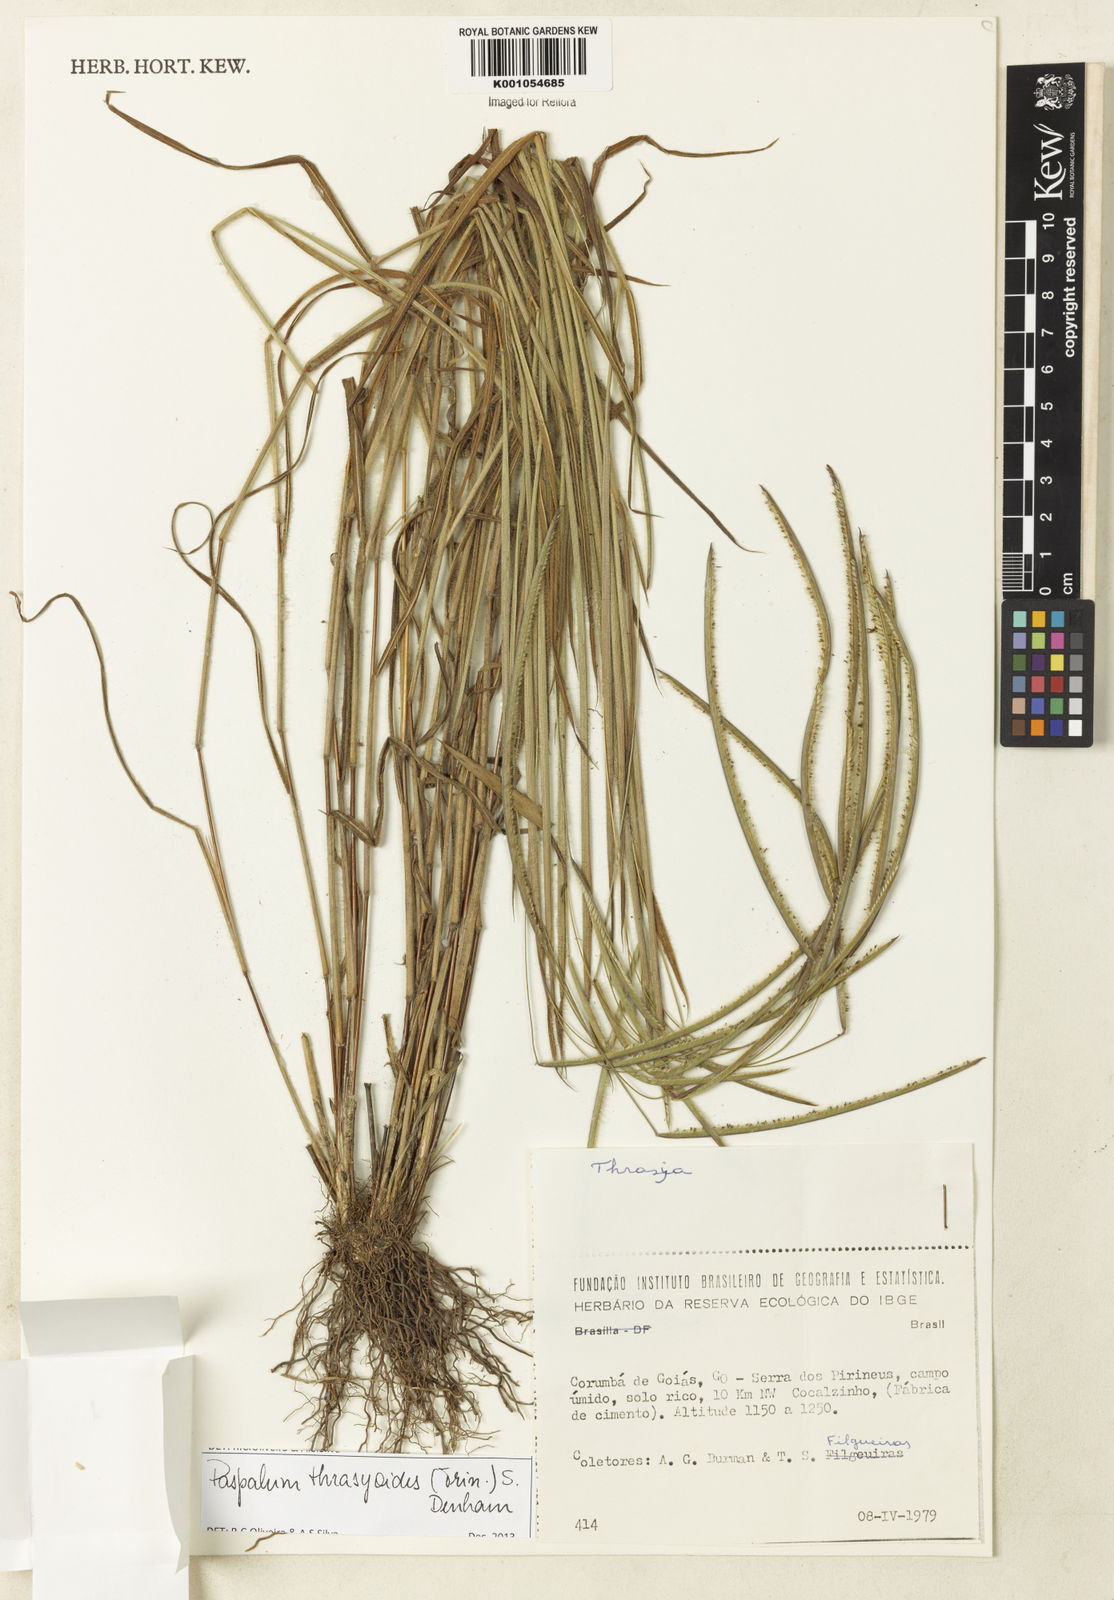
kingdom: Plantae
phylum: Tracheophyta
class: Liliopsida
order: Poales
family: Poaceae
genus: Paspalum
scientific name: Paspalum thrasyoides
